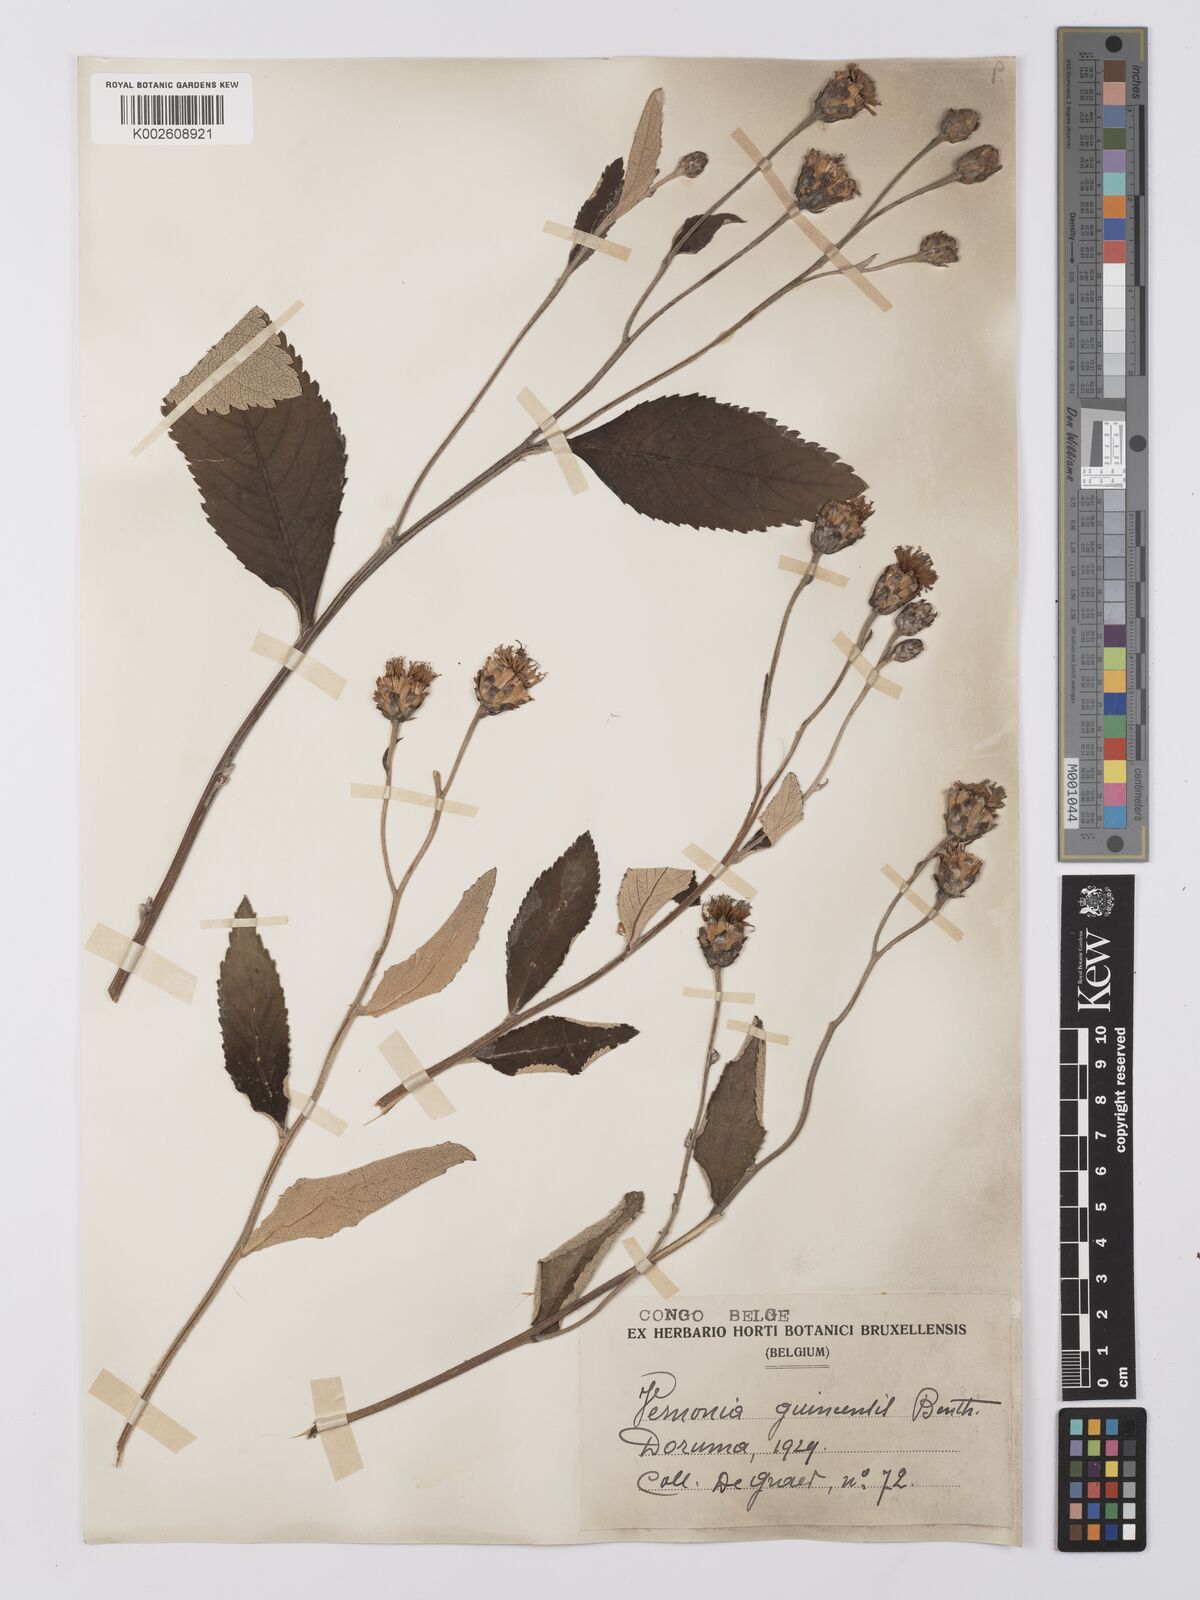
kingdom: Plantae
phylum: Tracheophyta
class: Magnoliopsida
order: Asterales
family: Asteraceae
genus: Baccharoides
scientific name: Baccharoides guineensis
